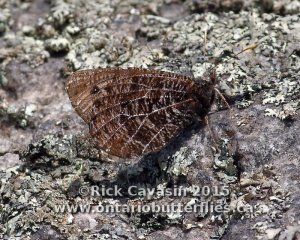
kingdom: Animalia
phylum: Arthropoda
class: Insecta
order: Lepidoptera
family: Nymphalidae
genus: Oeneis
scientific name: Oeneis chryxus
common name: Chryxus Arctic
